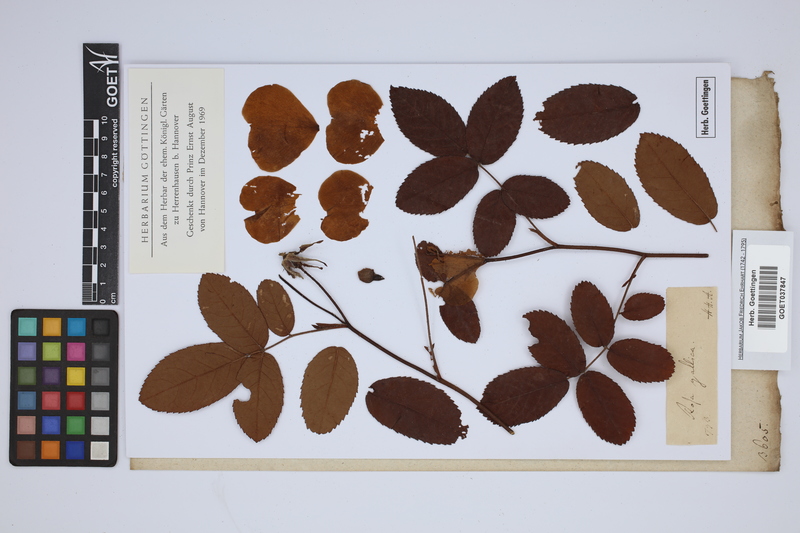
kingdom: Plantae
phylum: Tracheophyta
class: Magnoliopsida
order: Rosales
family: Rosaceae
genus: Rosa
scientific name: Rosa gallica
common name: French rose
